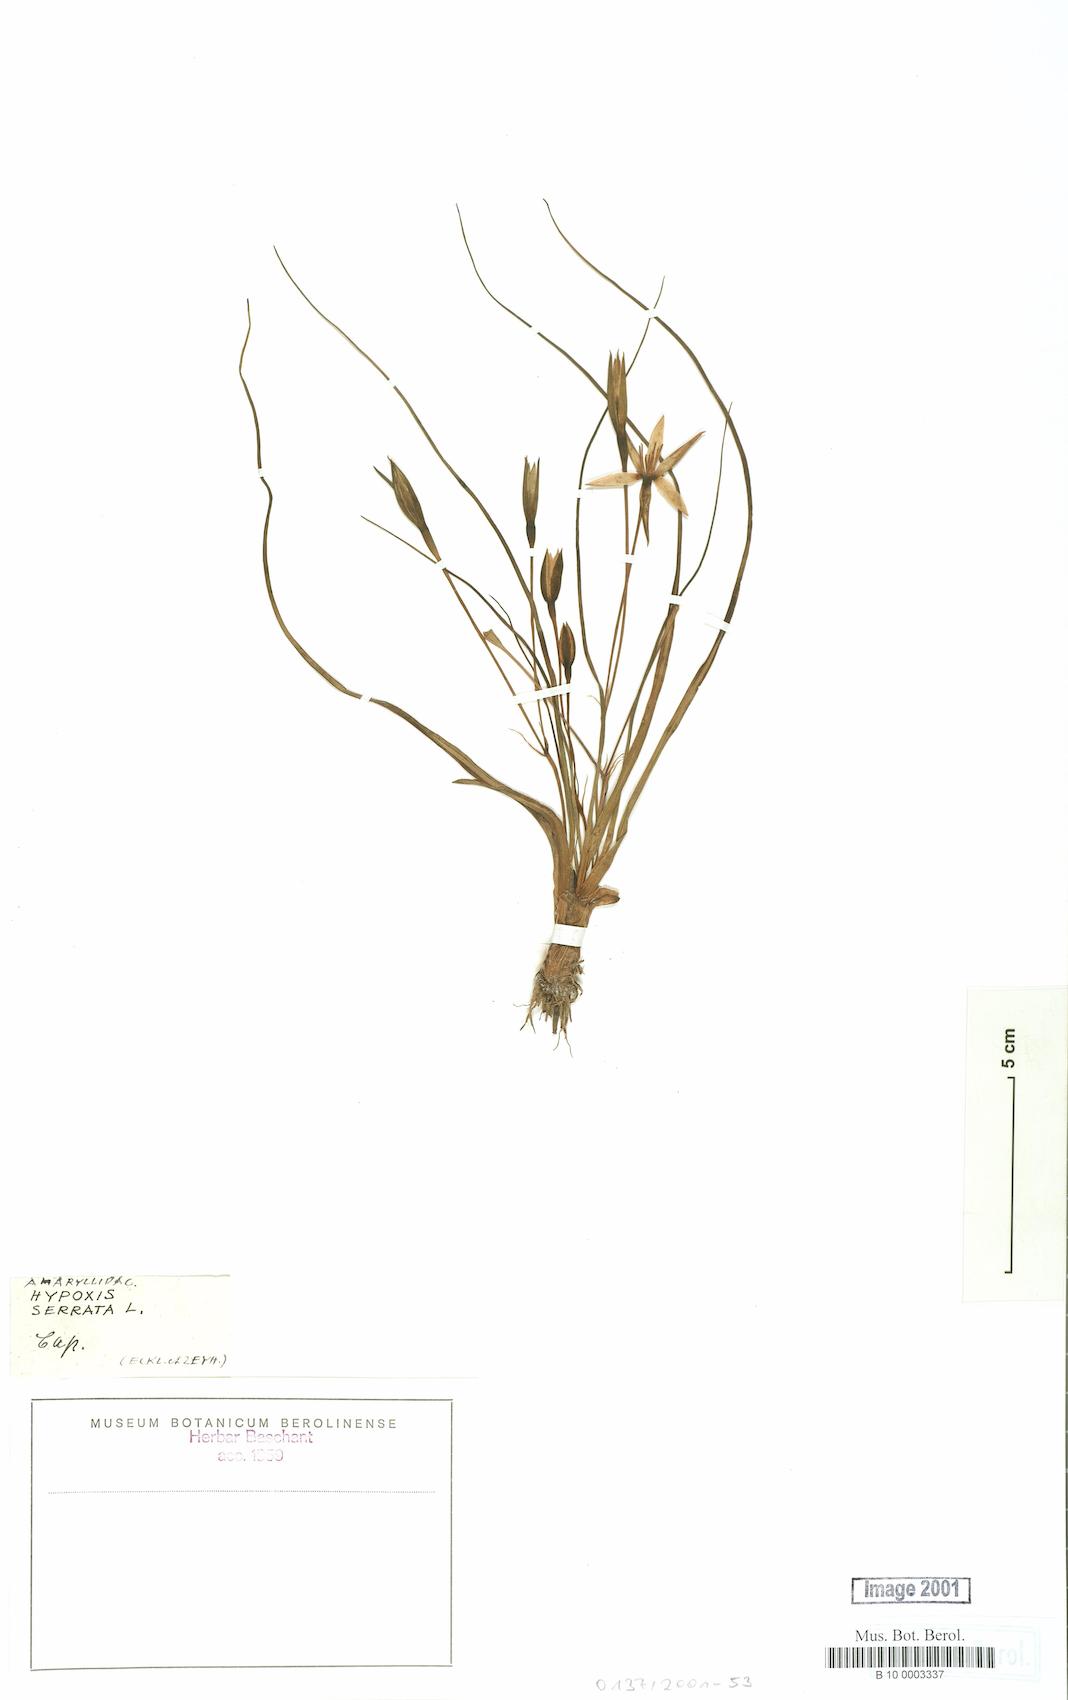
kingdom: Plantae
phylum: Tracheophyta
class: Liliopsida
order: Asparagales
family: Hypoxidaceae
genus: Pauridia
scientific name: Pauridia serrata
